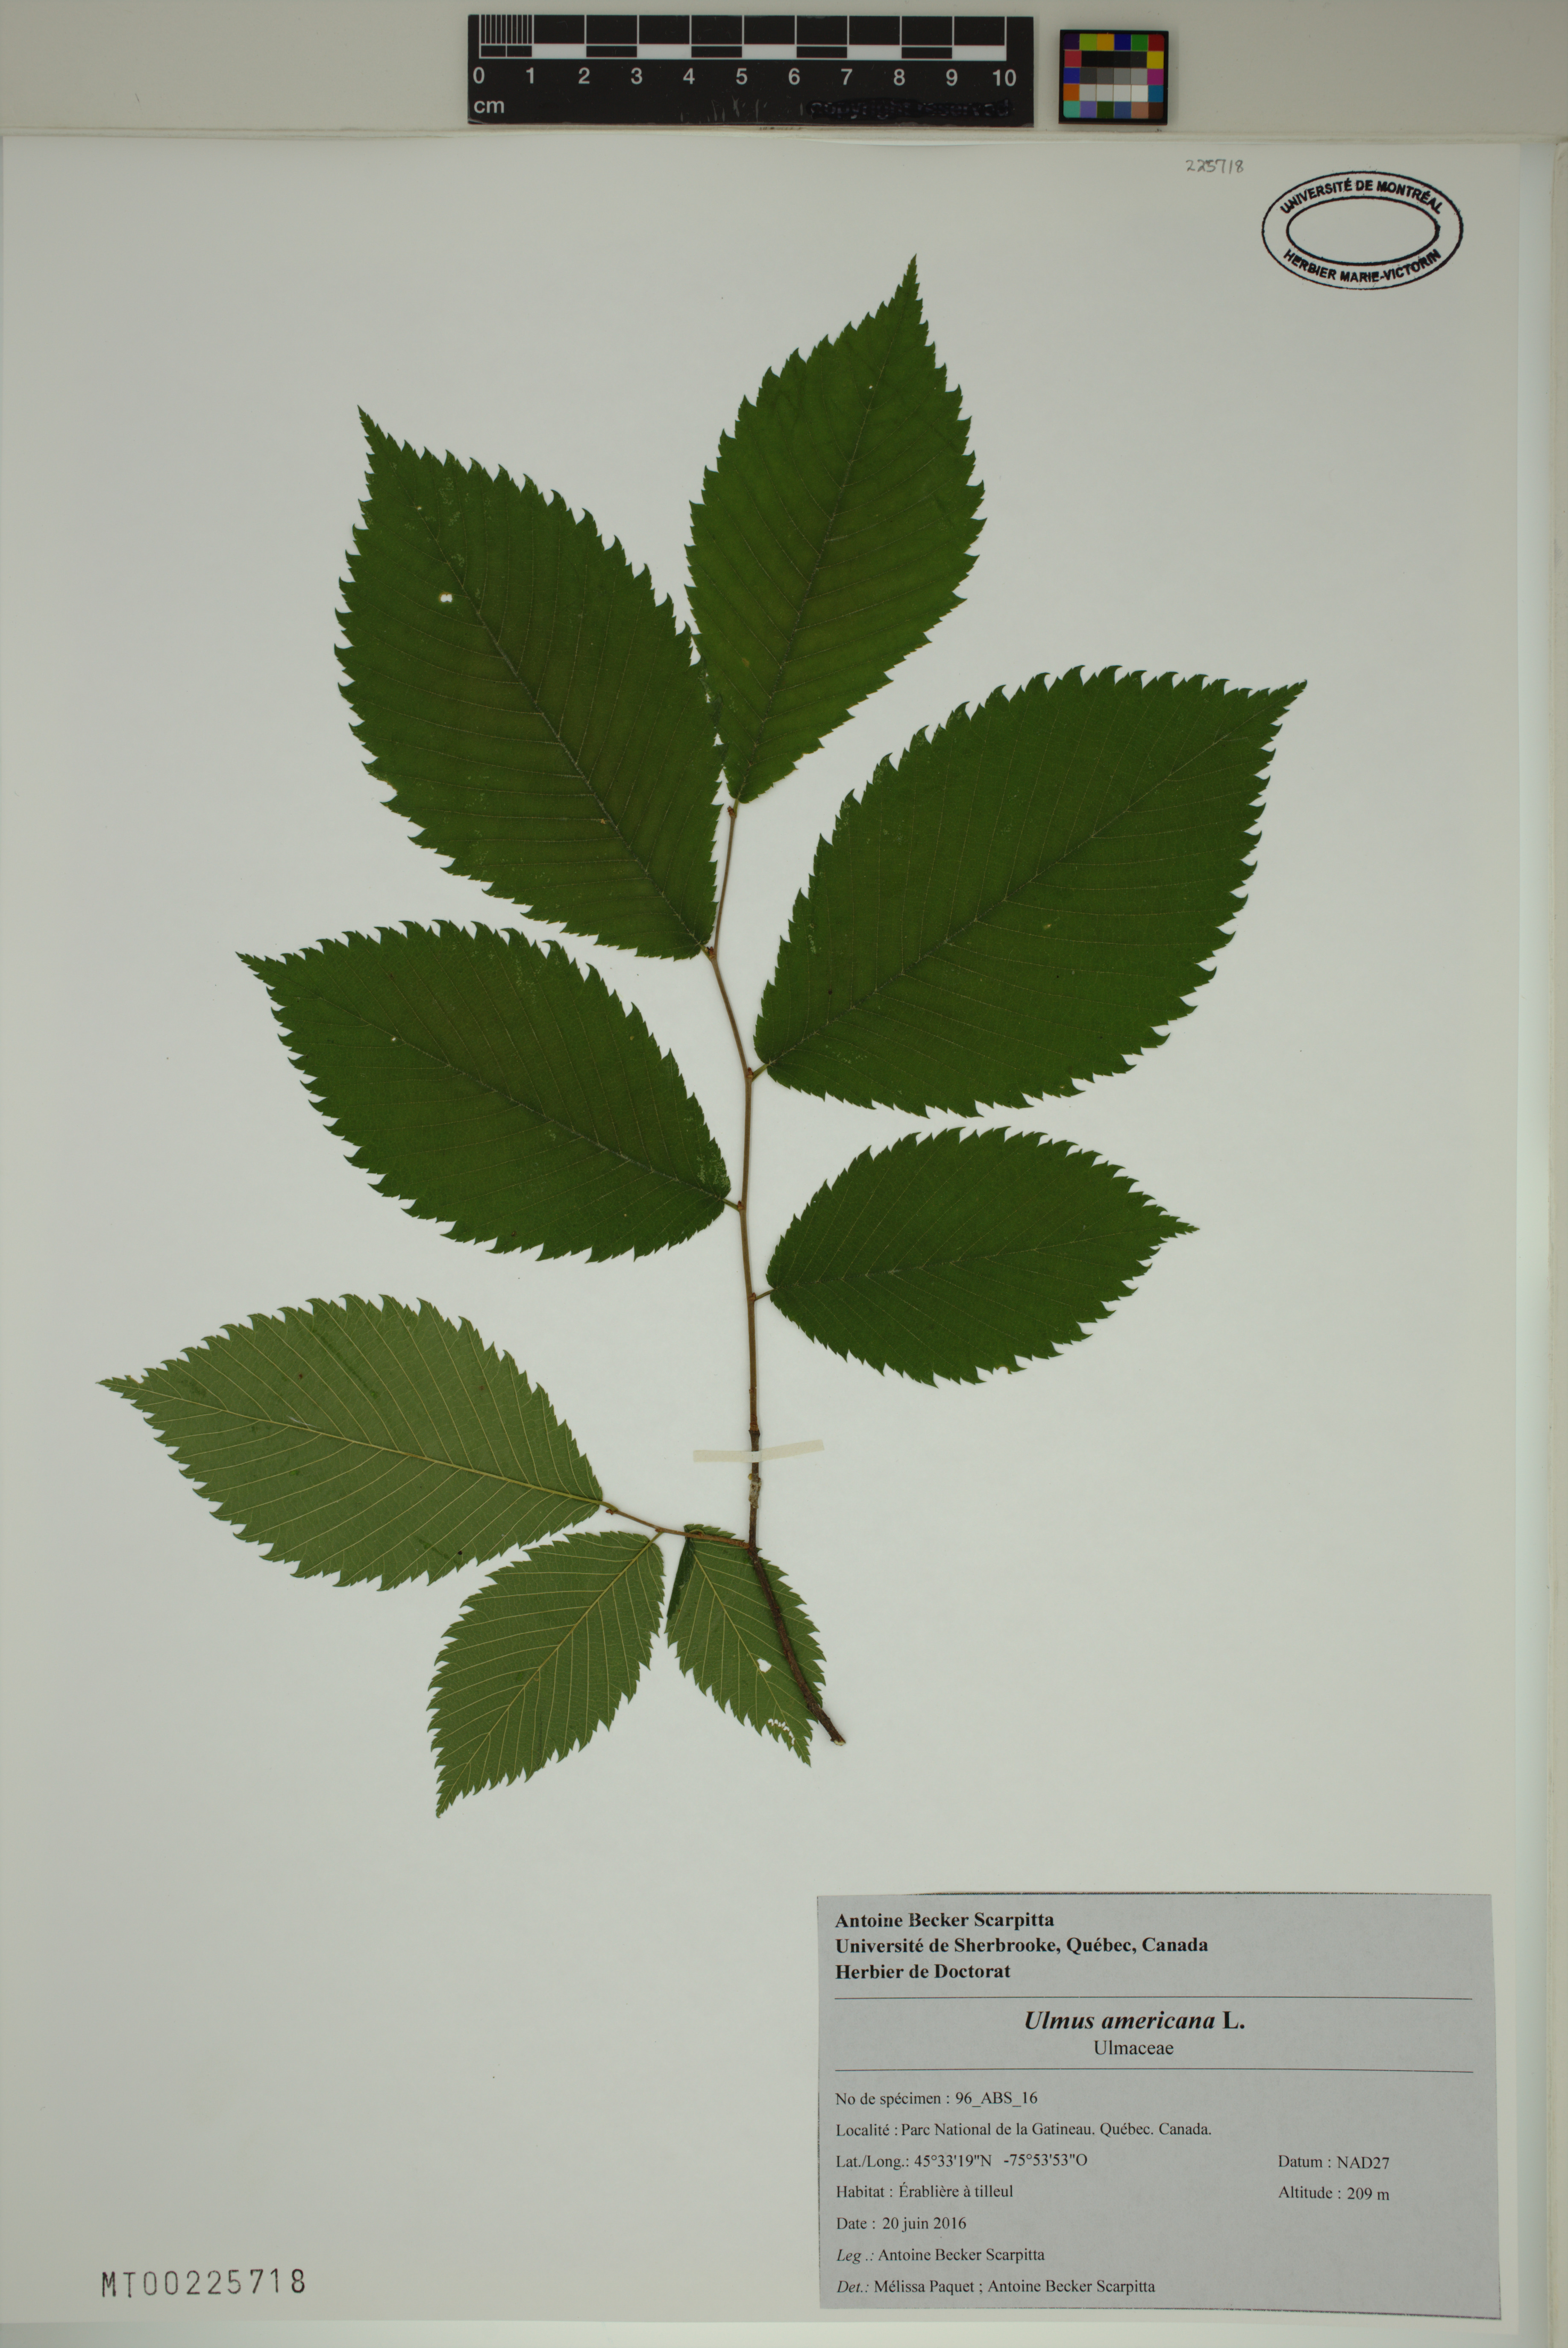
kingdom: Plantae
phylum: Tracheophyta
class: Magnoliopsida
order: Rosales
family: Ulmaceae
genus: Ulmus
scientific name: Ulmus americana
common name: American elm
